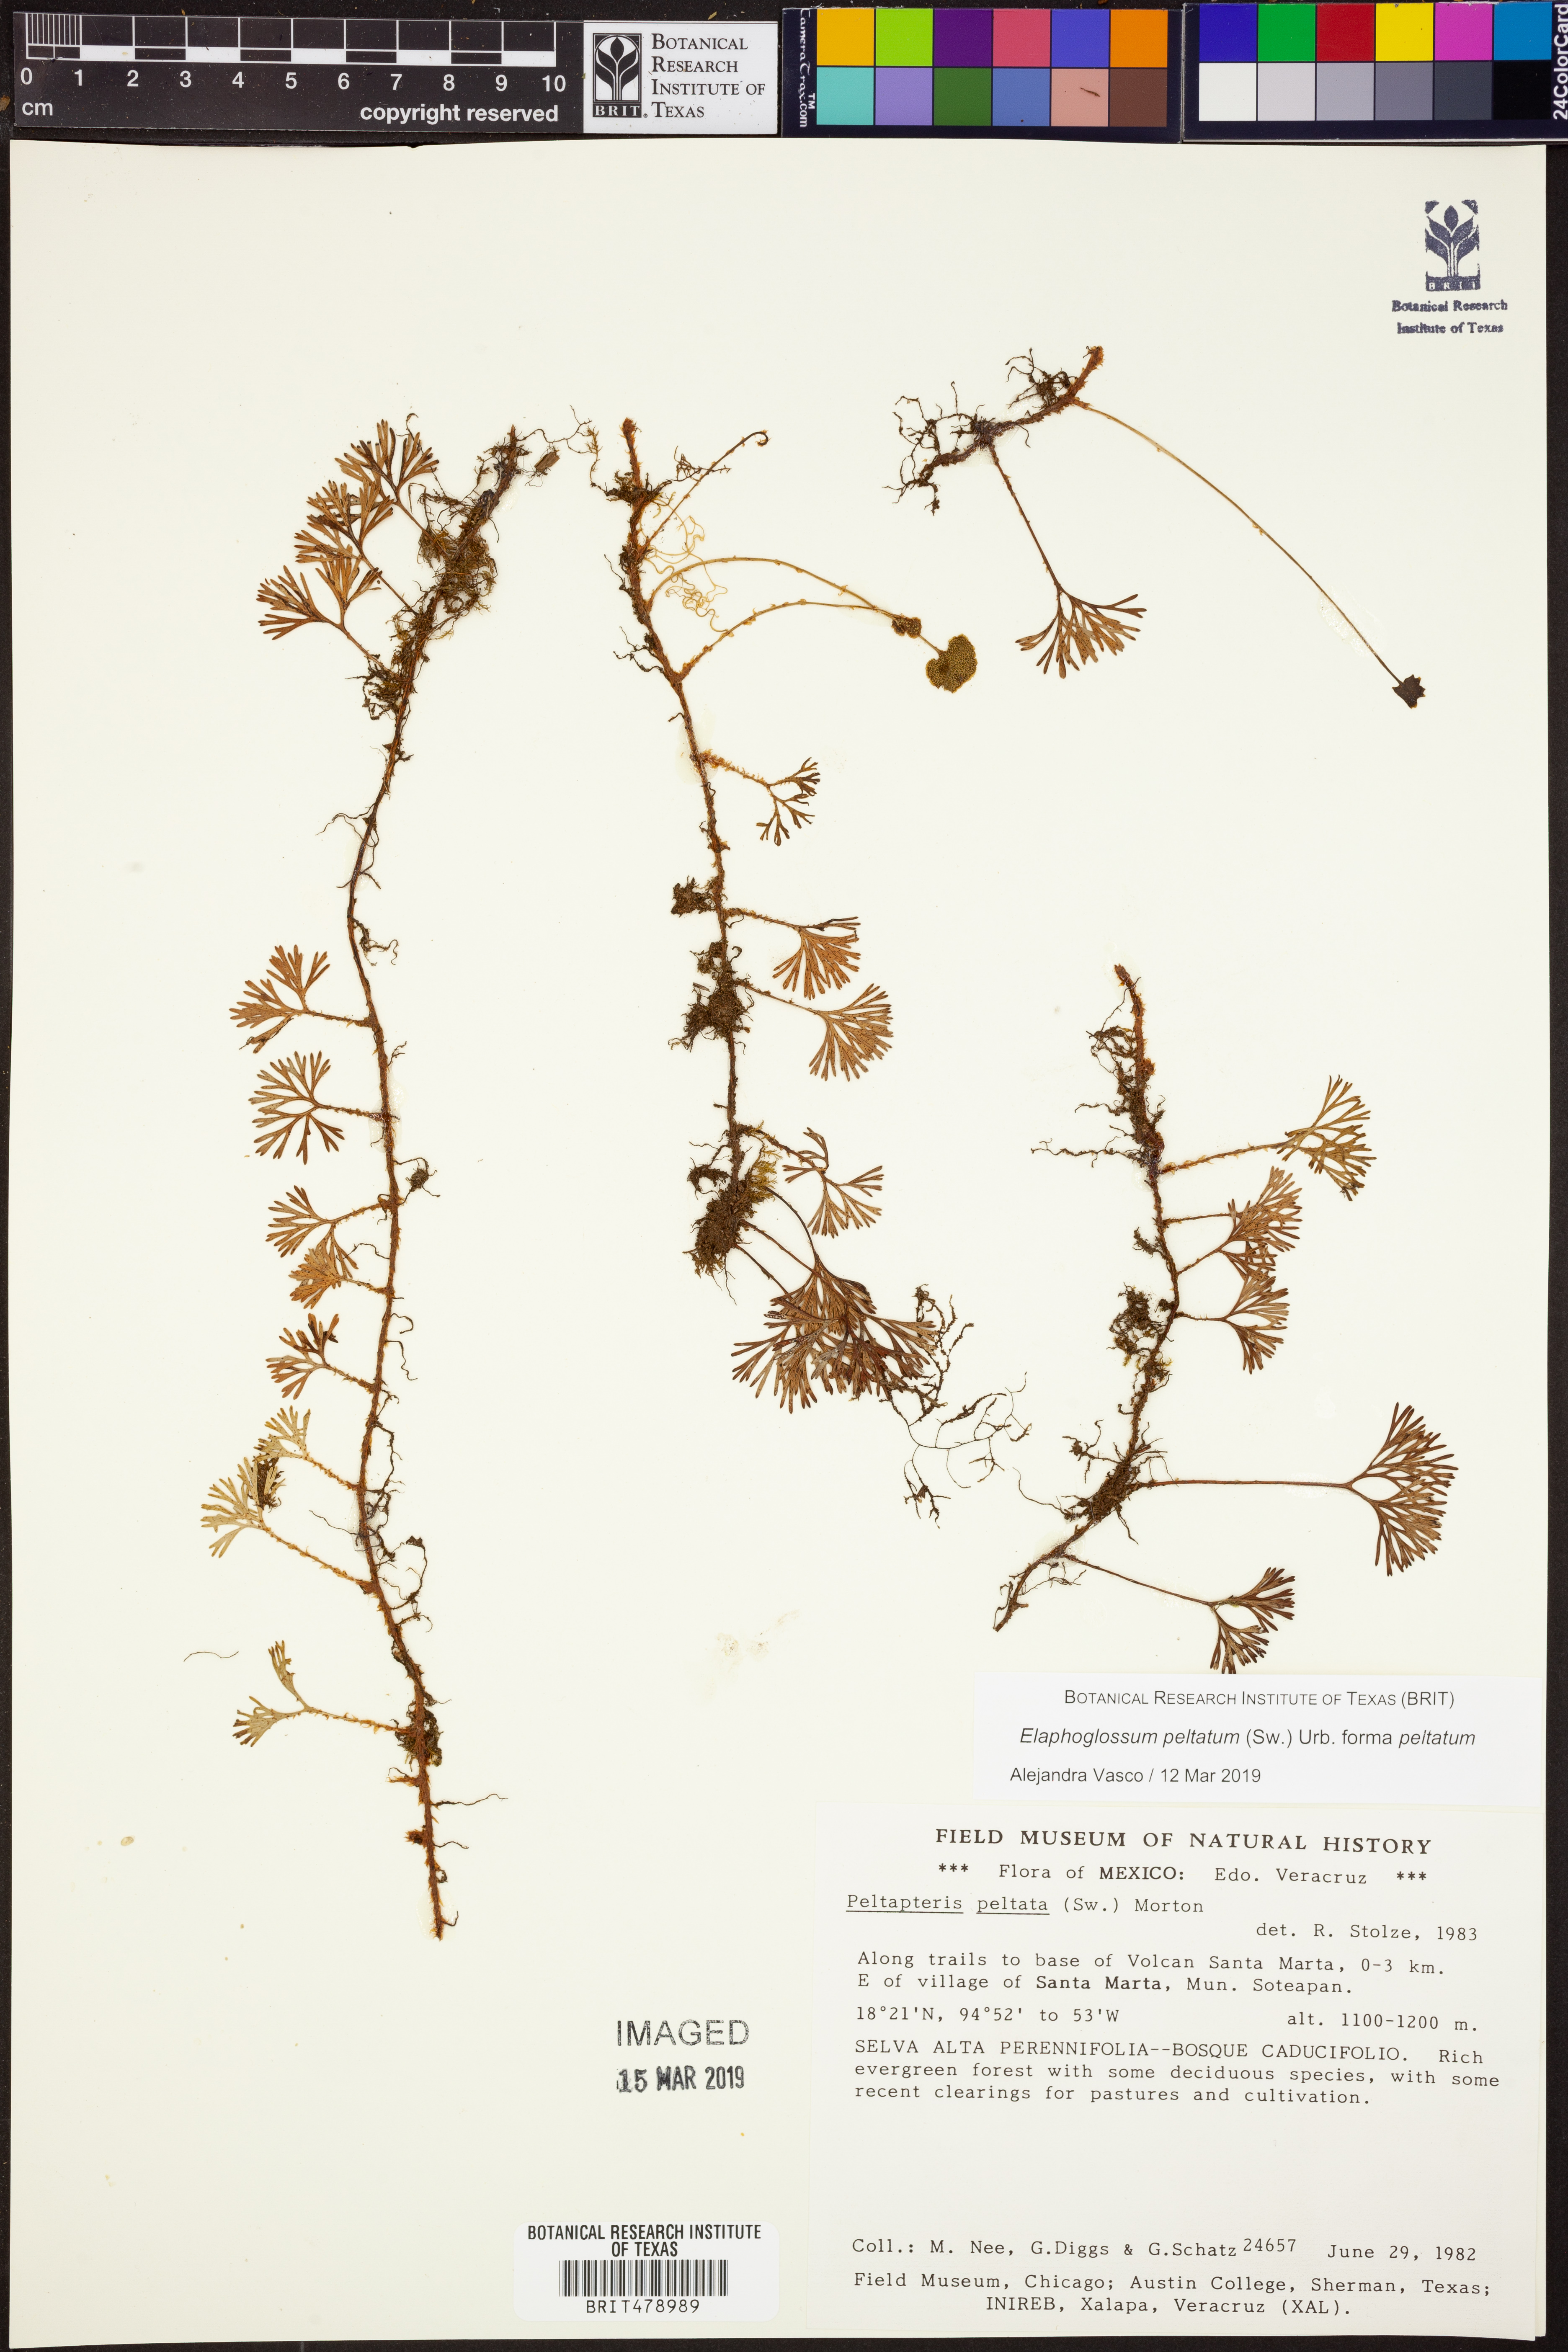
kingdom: Plantae
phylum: Tracheophyta
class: Polypodiopsida
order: Polypodiales
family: Dryopteridaceae
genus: Elaphoglossum
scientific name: Elaphoglossum peltatum
